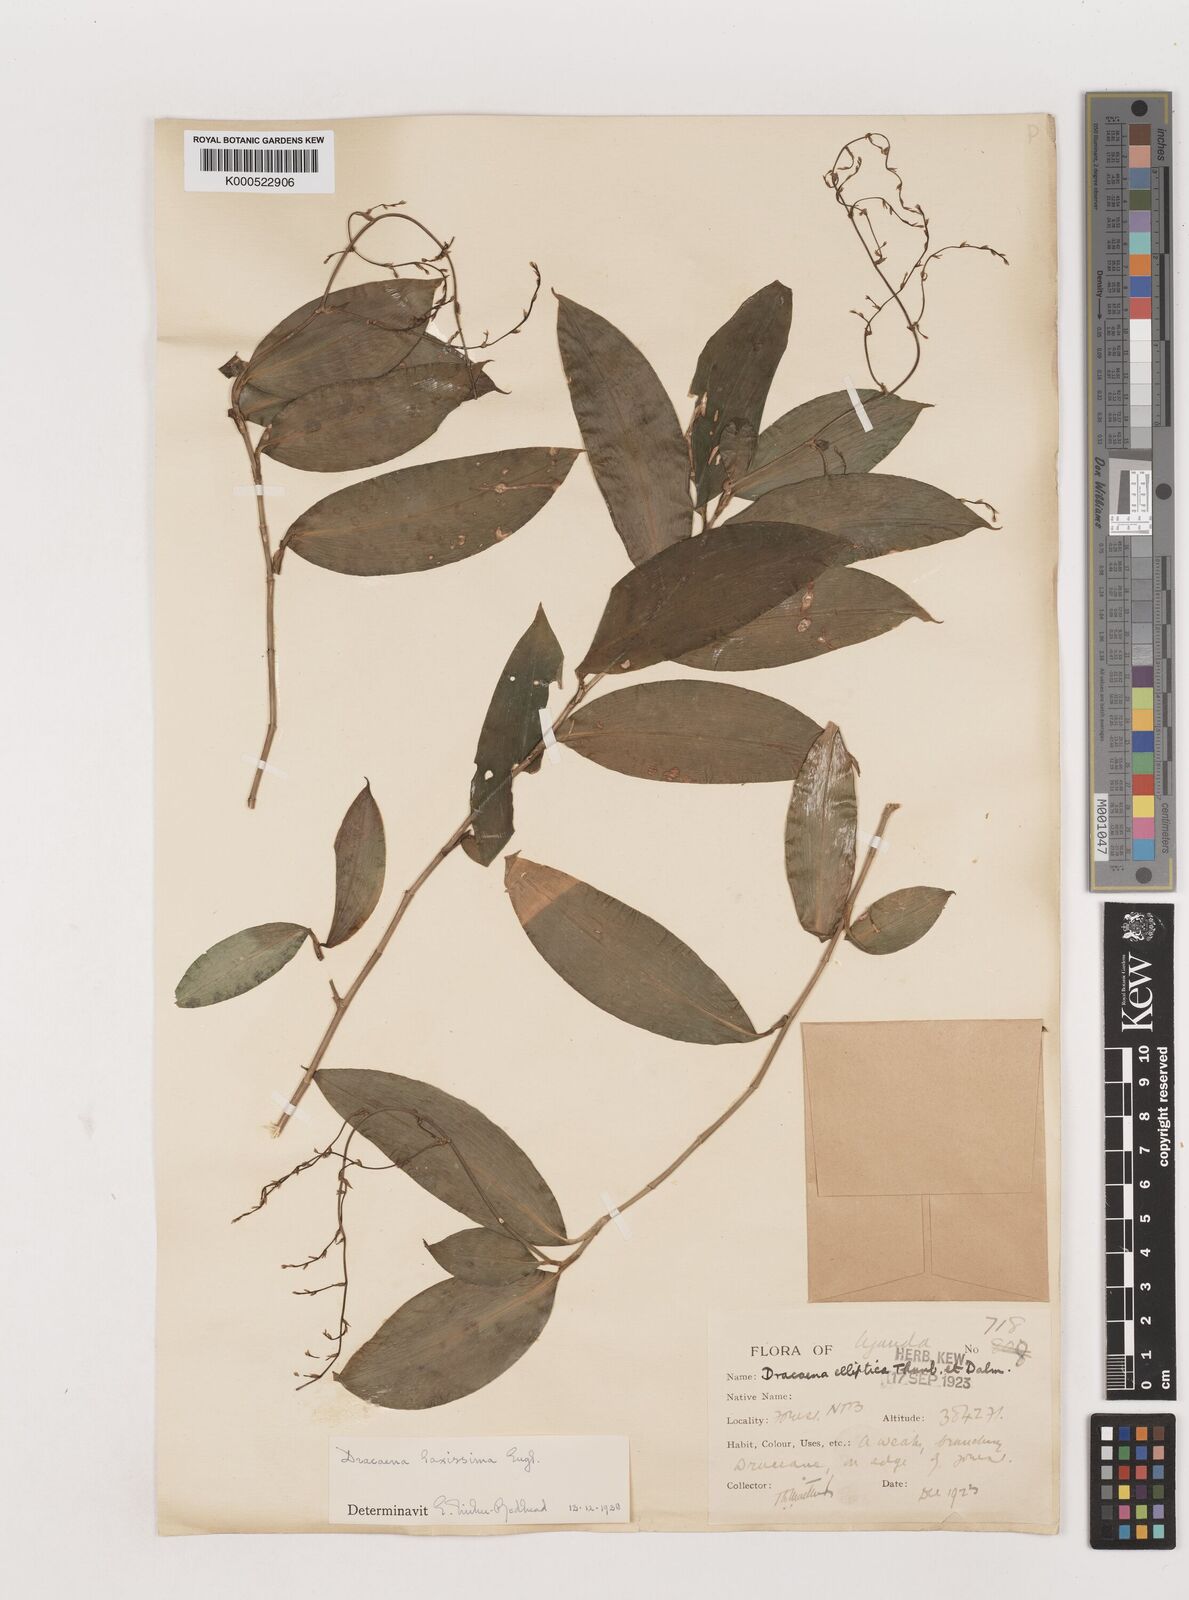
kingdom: Plantae
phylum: Tracheophyta
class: Liliopsida
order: Asparagales
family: Asparagaceae
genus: Dracaena
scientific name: Dracaena laxissima
